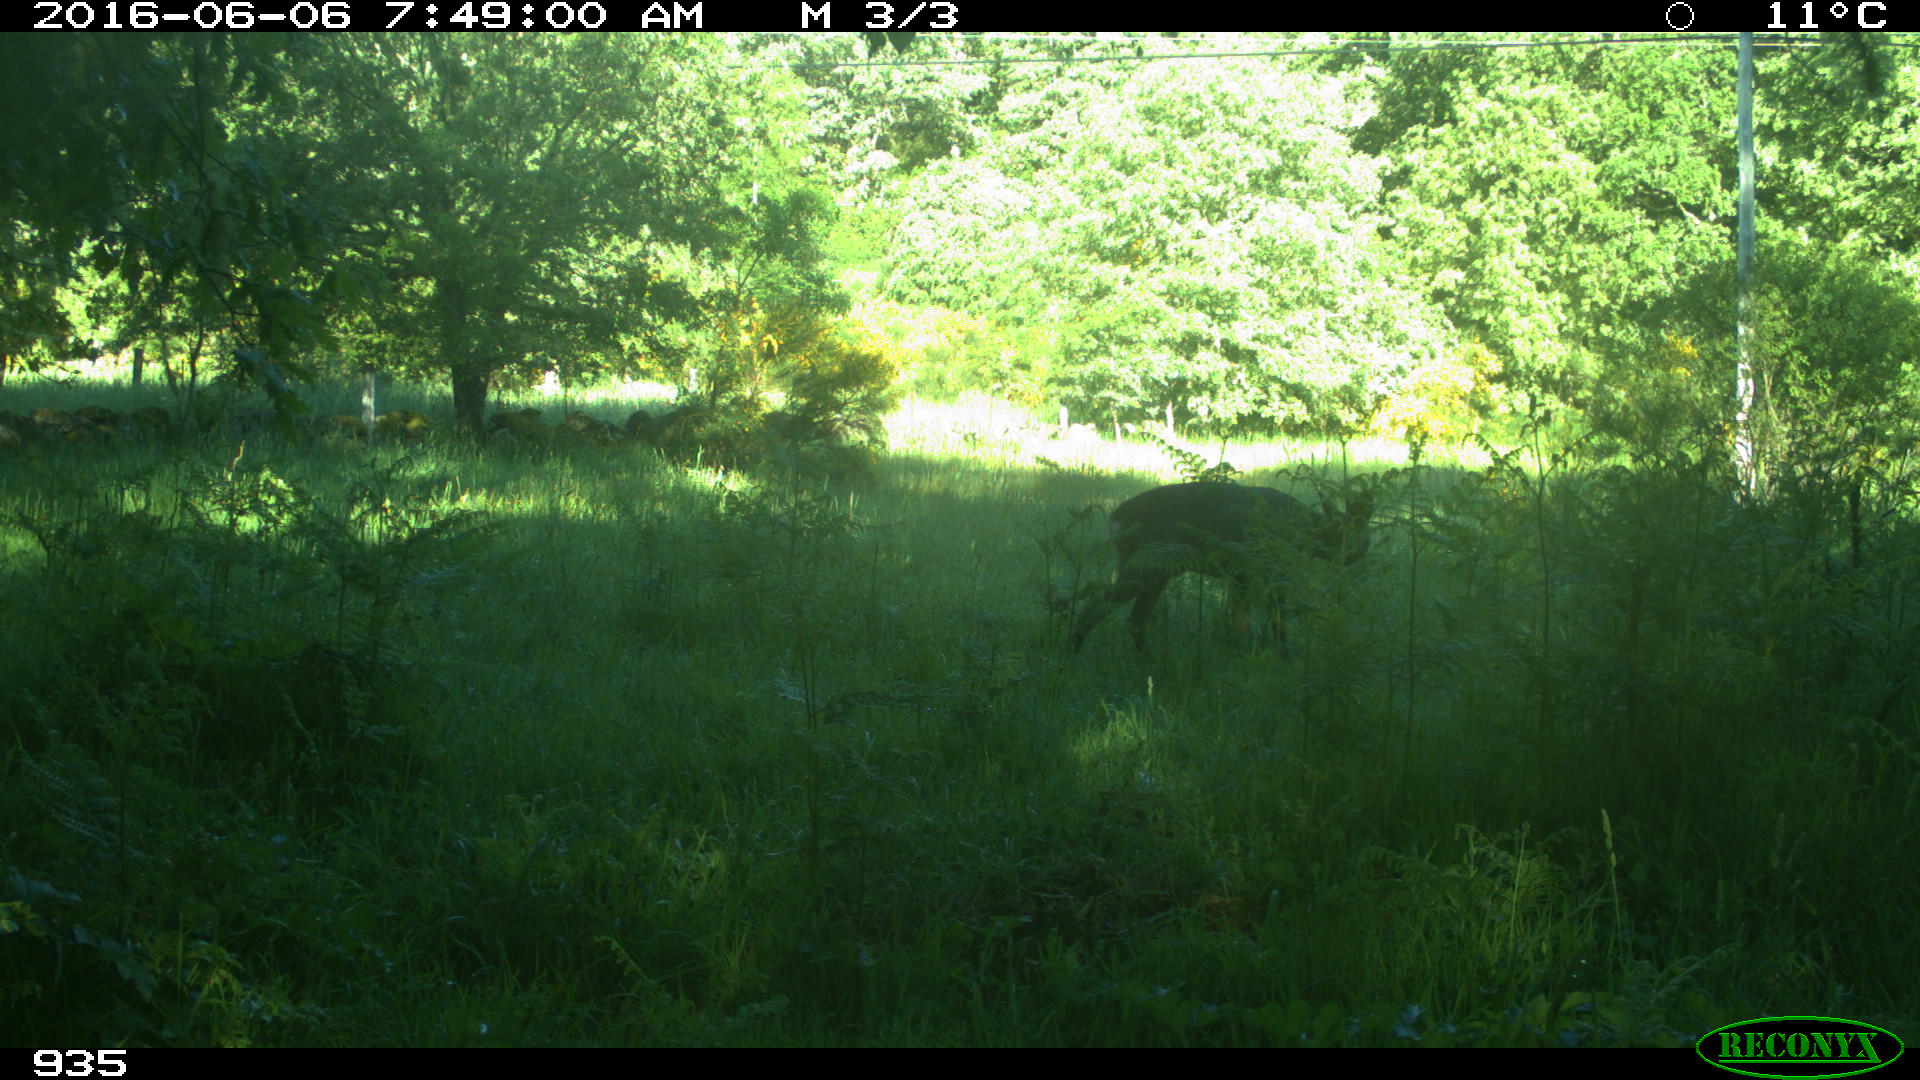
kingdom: Animalia
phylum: Chordata
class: Mammalia
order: Artiodactyla
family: Cervidae
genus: Capreolus
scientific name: Capreolus capreolus
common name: Western roe deer
